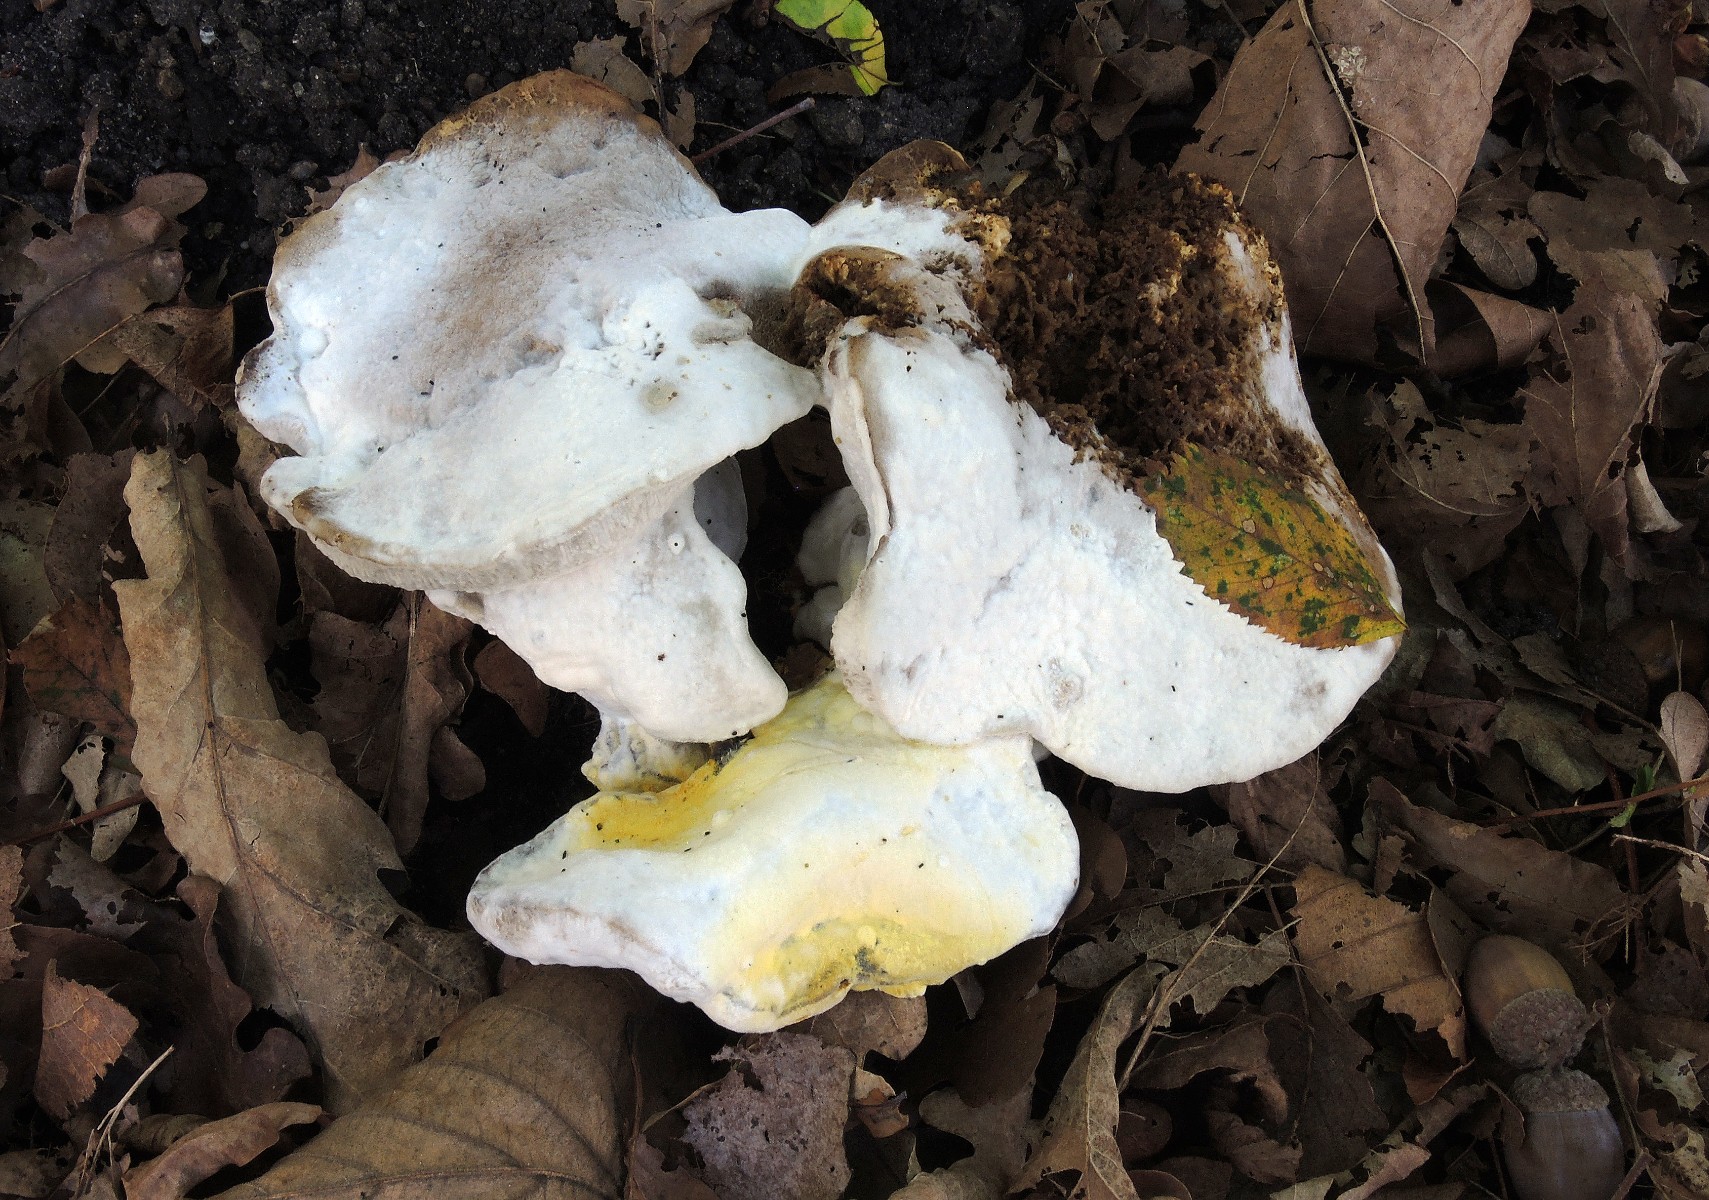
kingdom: Fungi
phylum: Ascomycota
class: Sordariomycetes
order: Hypocreales
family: Hypocreaceae
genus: Sepedonium
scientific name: Sepedonium microspermum
